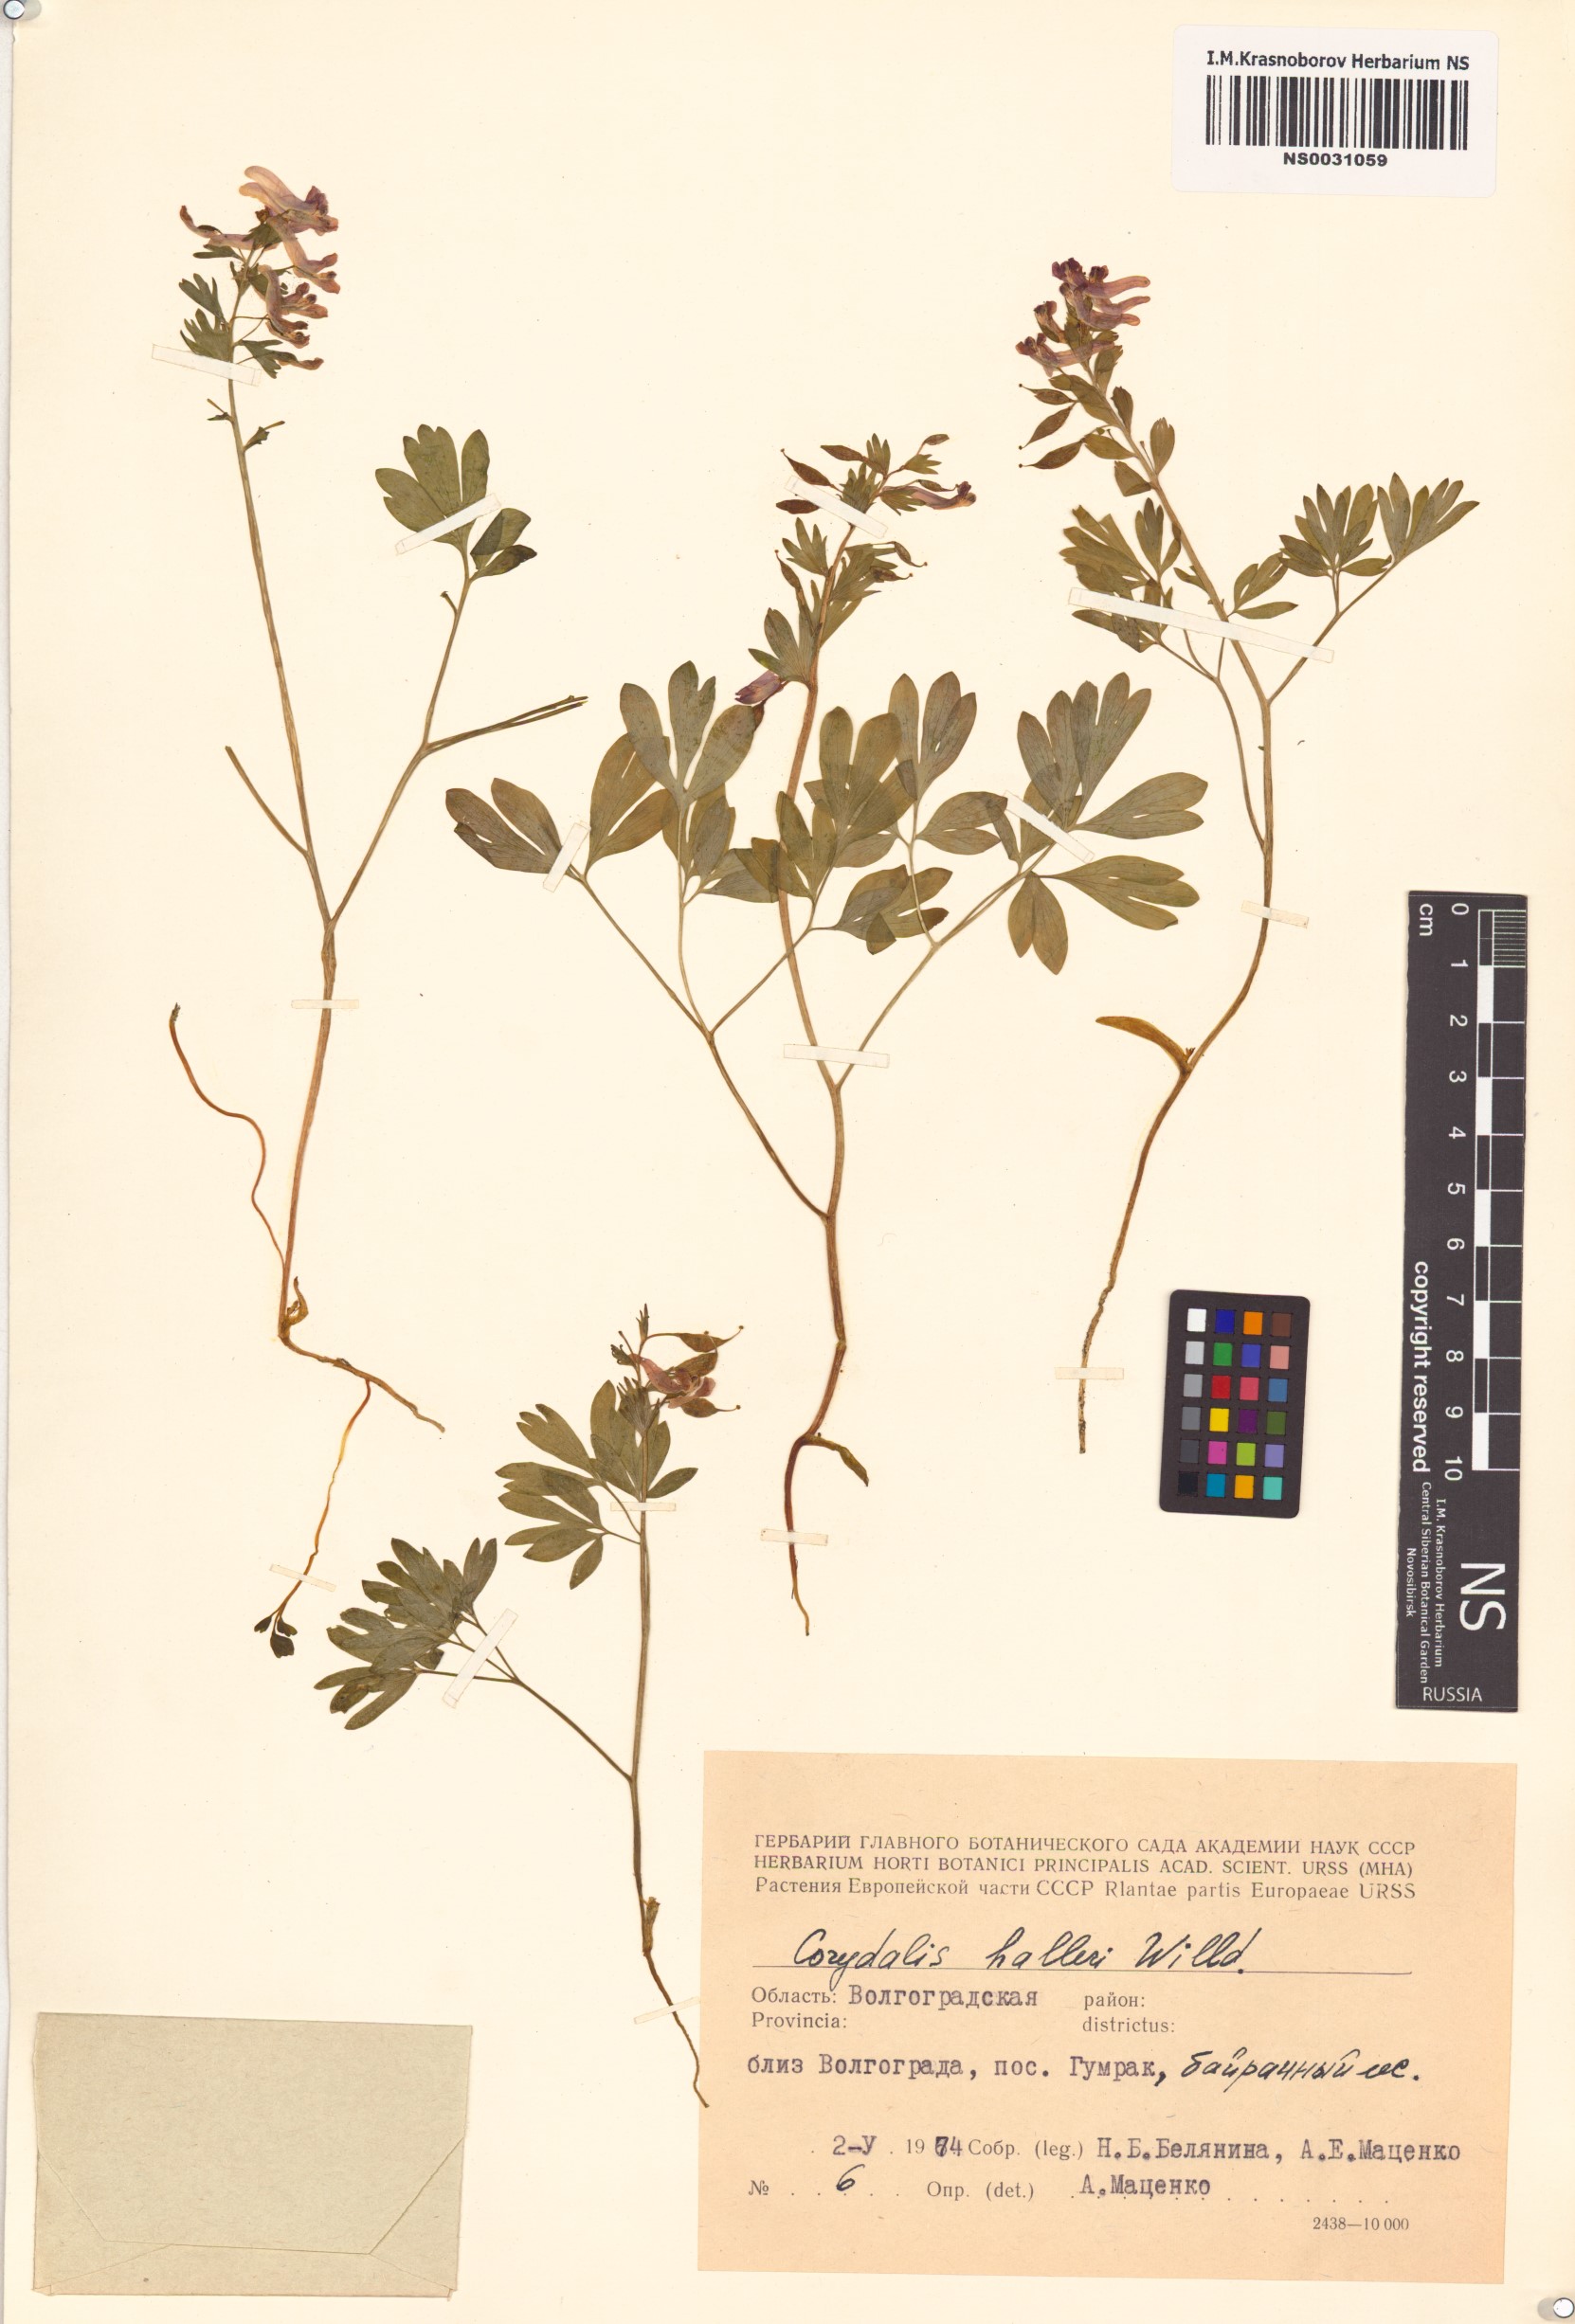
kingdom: Plantae
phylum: Tracheophyta
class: Magnoliopsida
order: Ranunculales
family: Papaveraceae
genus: Corydalis
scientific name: Corydalis solida
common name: Bird-in-a-bush
